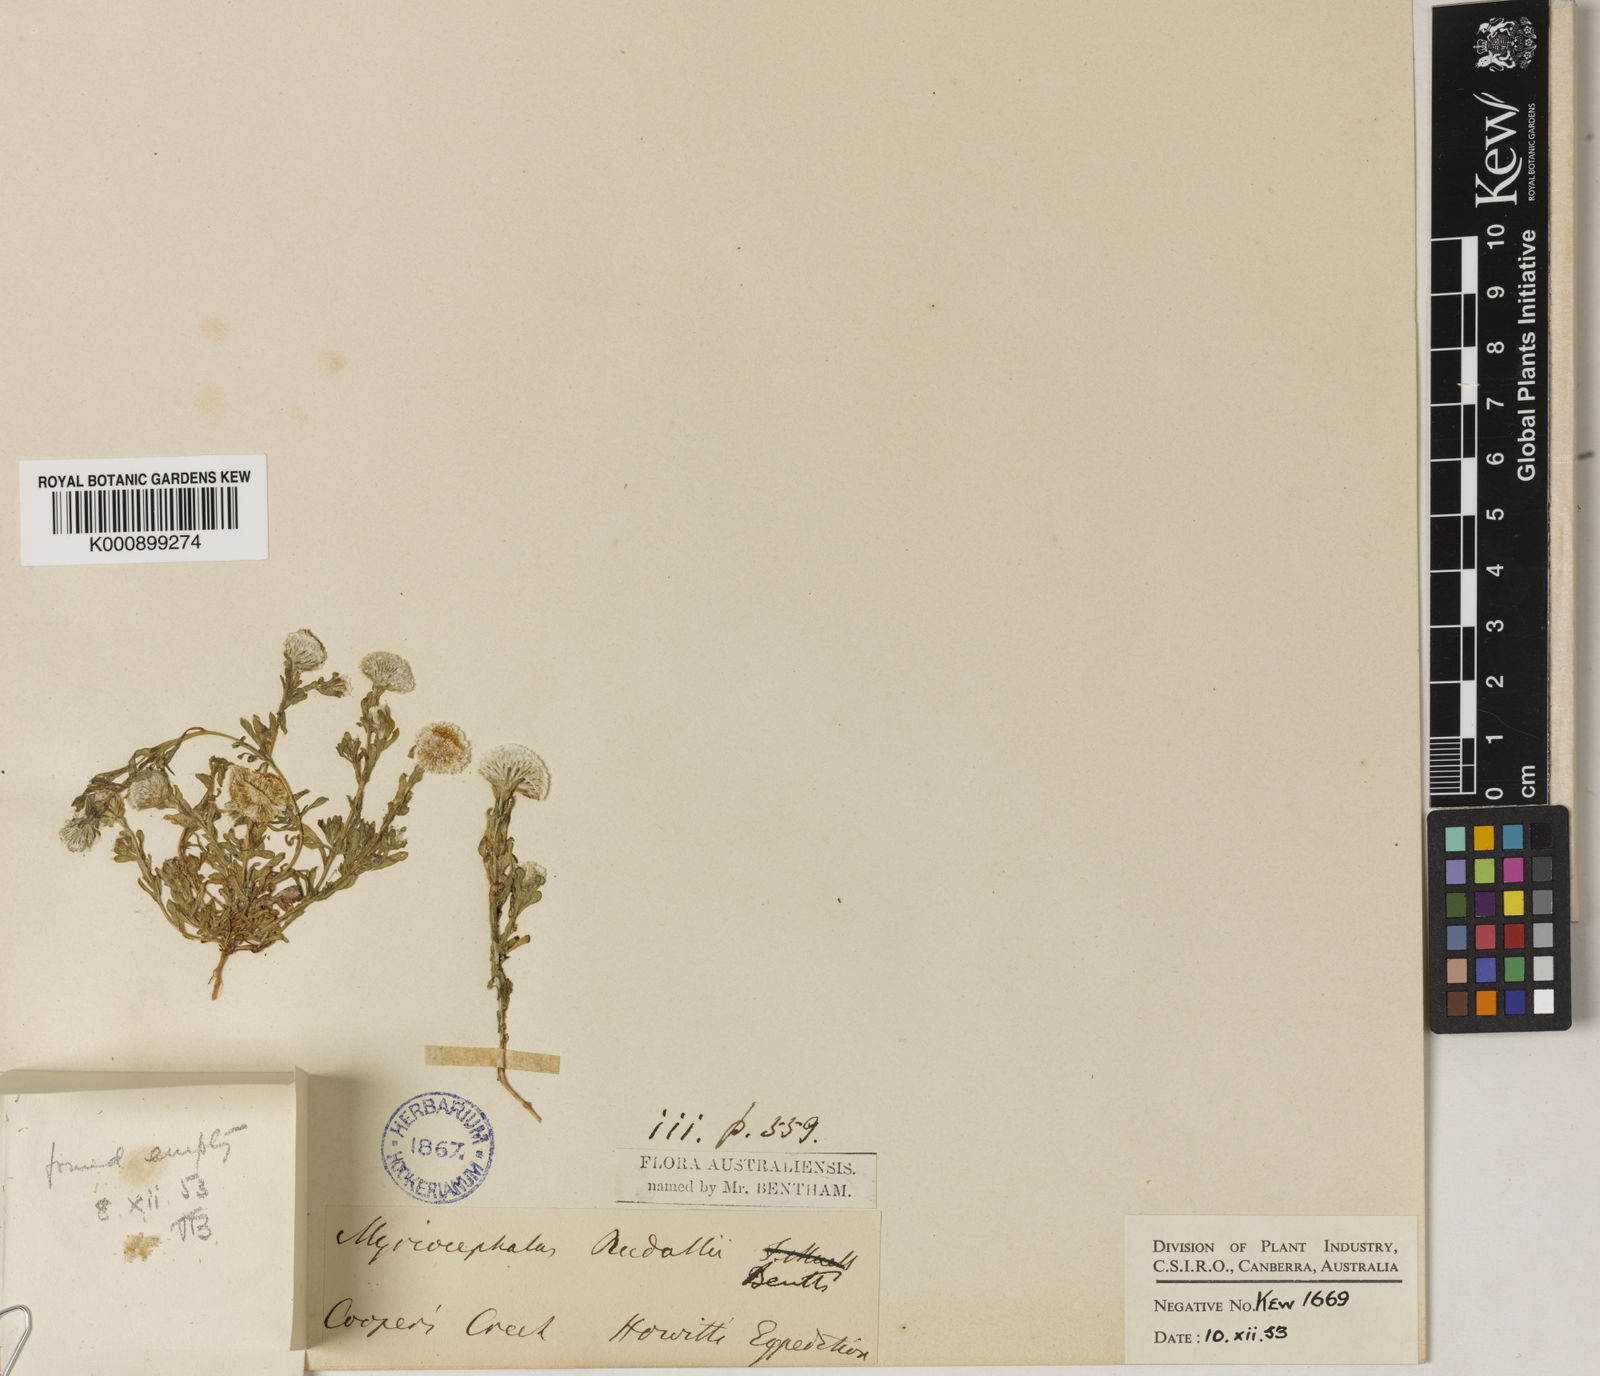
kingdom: Plantae
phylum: Tracheophyta
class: Magnoliopsida
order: Asterales
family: Asteraceae
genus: Myriocephalus
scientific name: Myriocephalus
